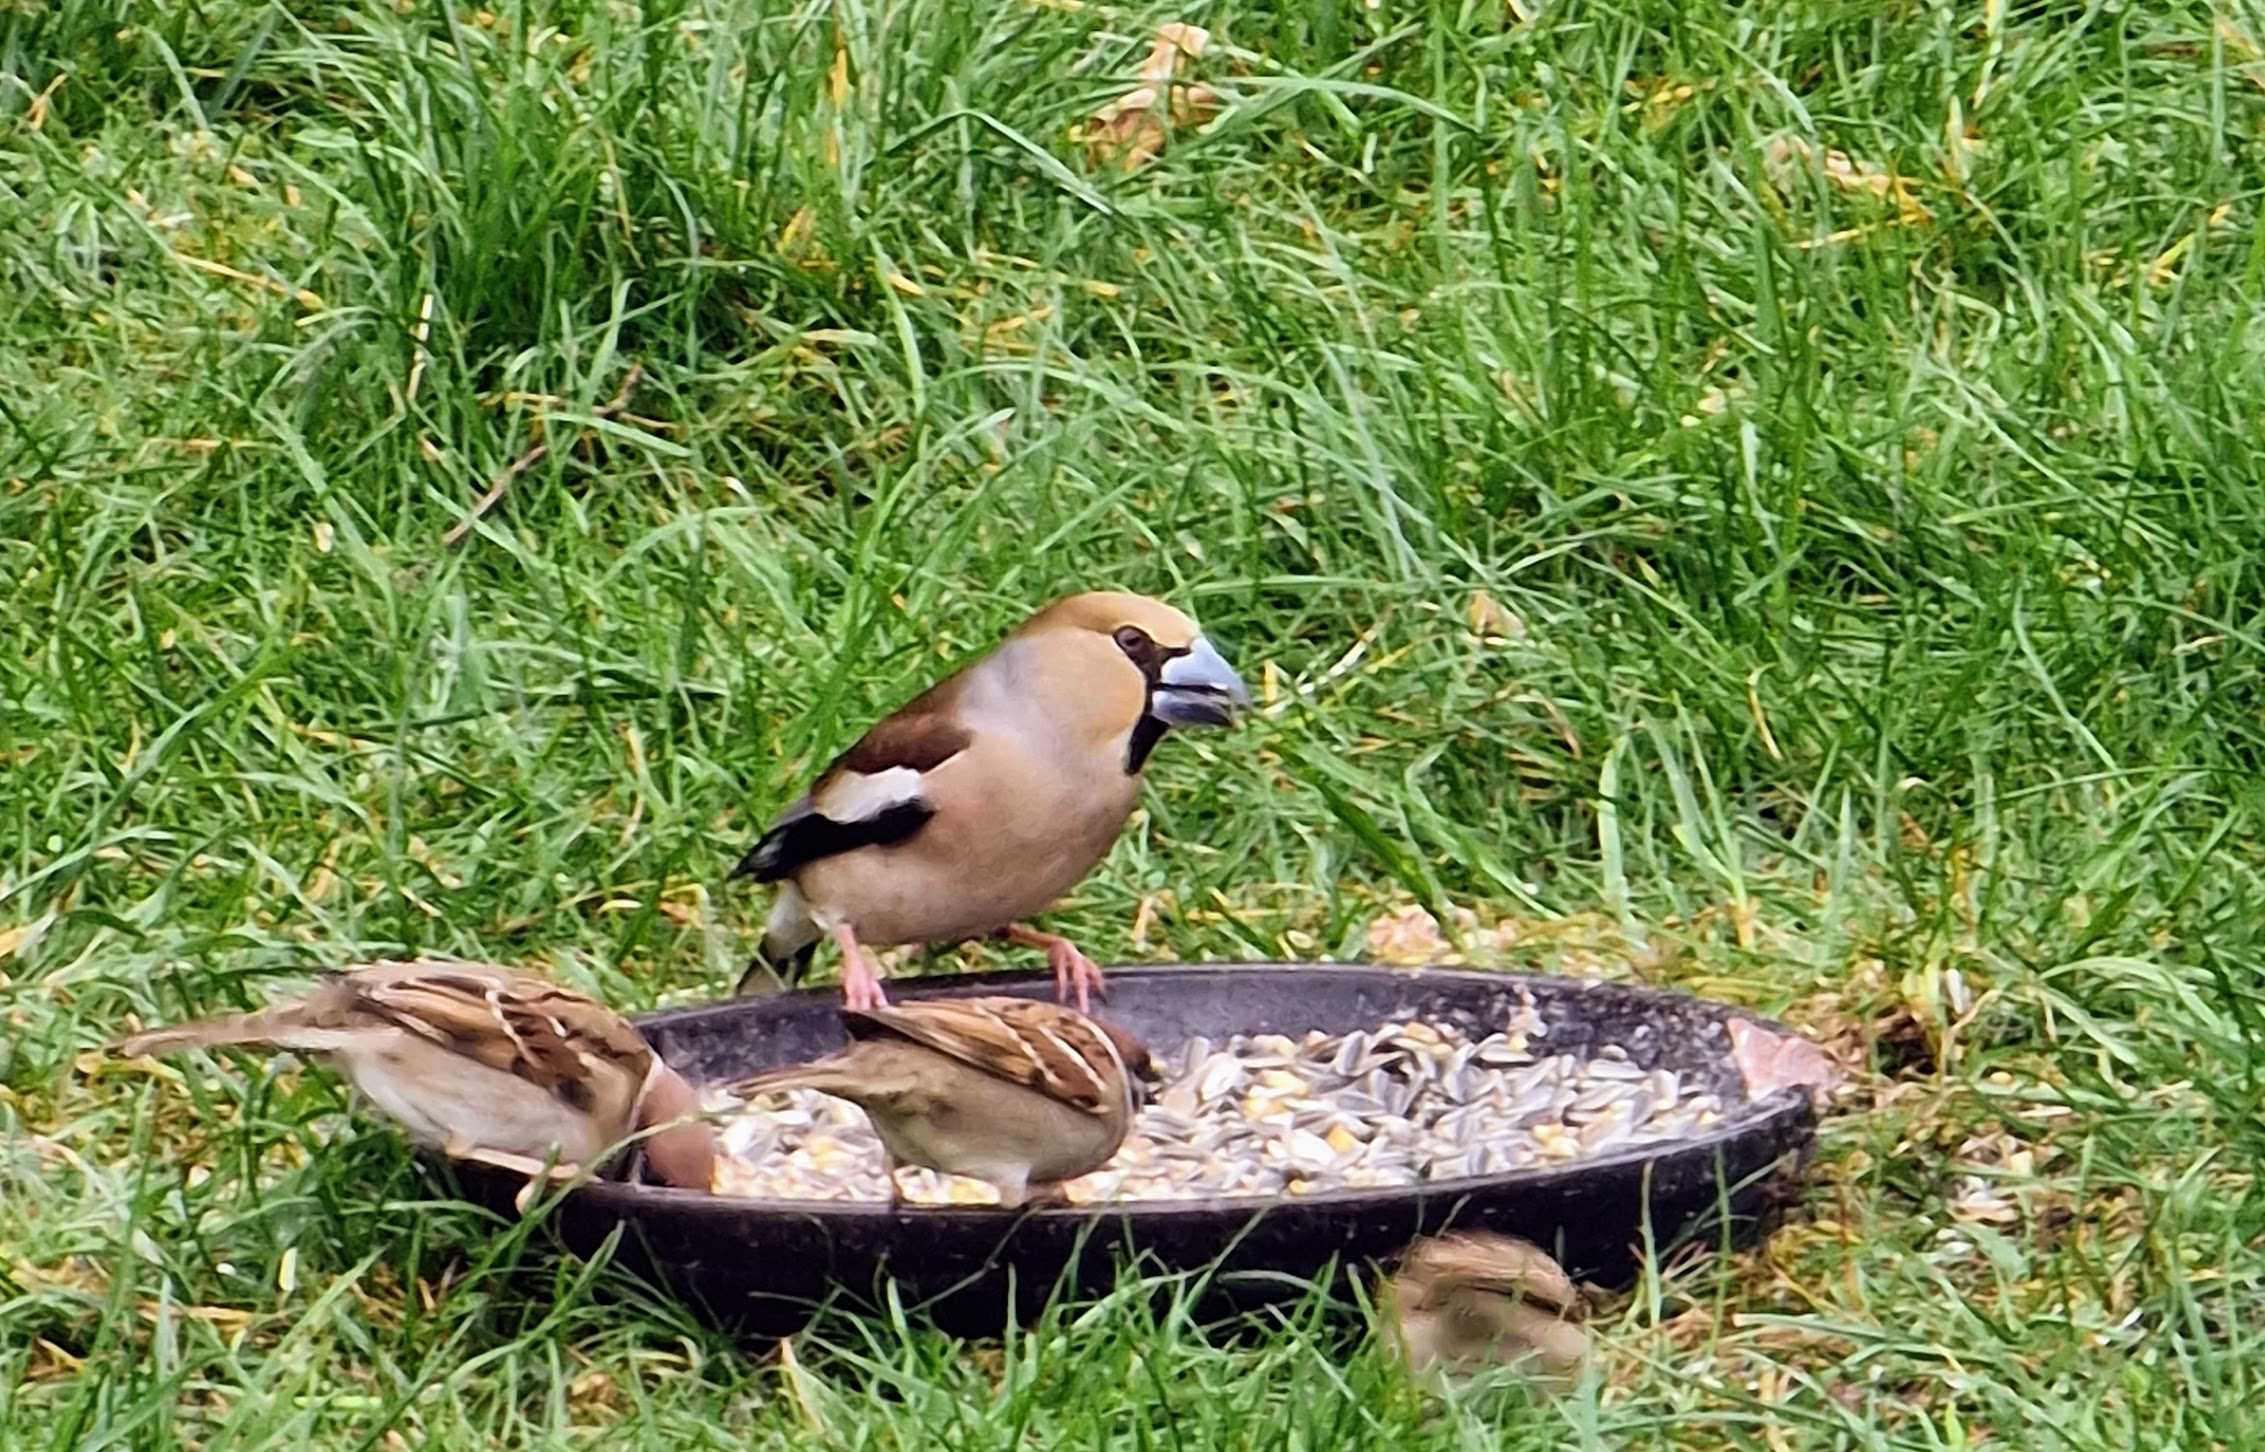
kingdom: Animalia
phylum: Chordata
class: Aves
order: Passeriformes
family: Fringillidae
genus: Coccothraustes
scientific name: Coccothraustes coccothraustes
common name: Kernebider
